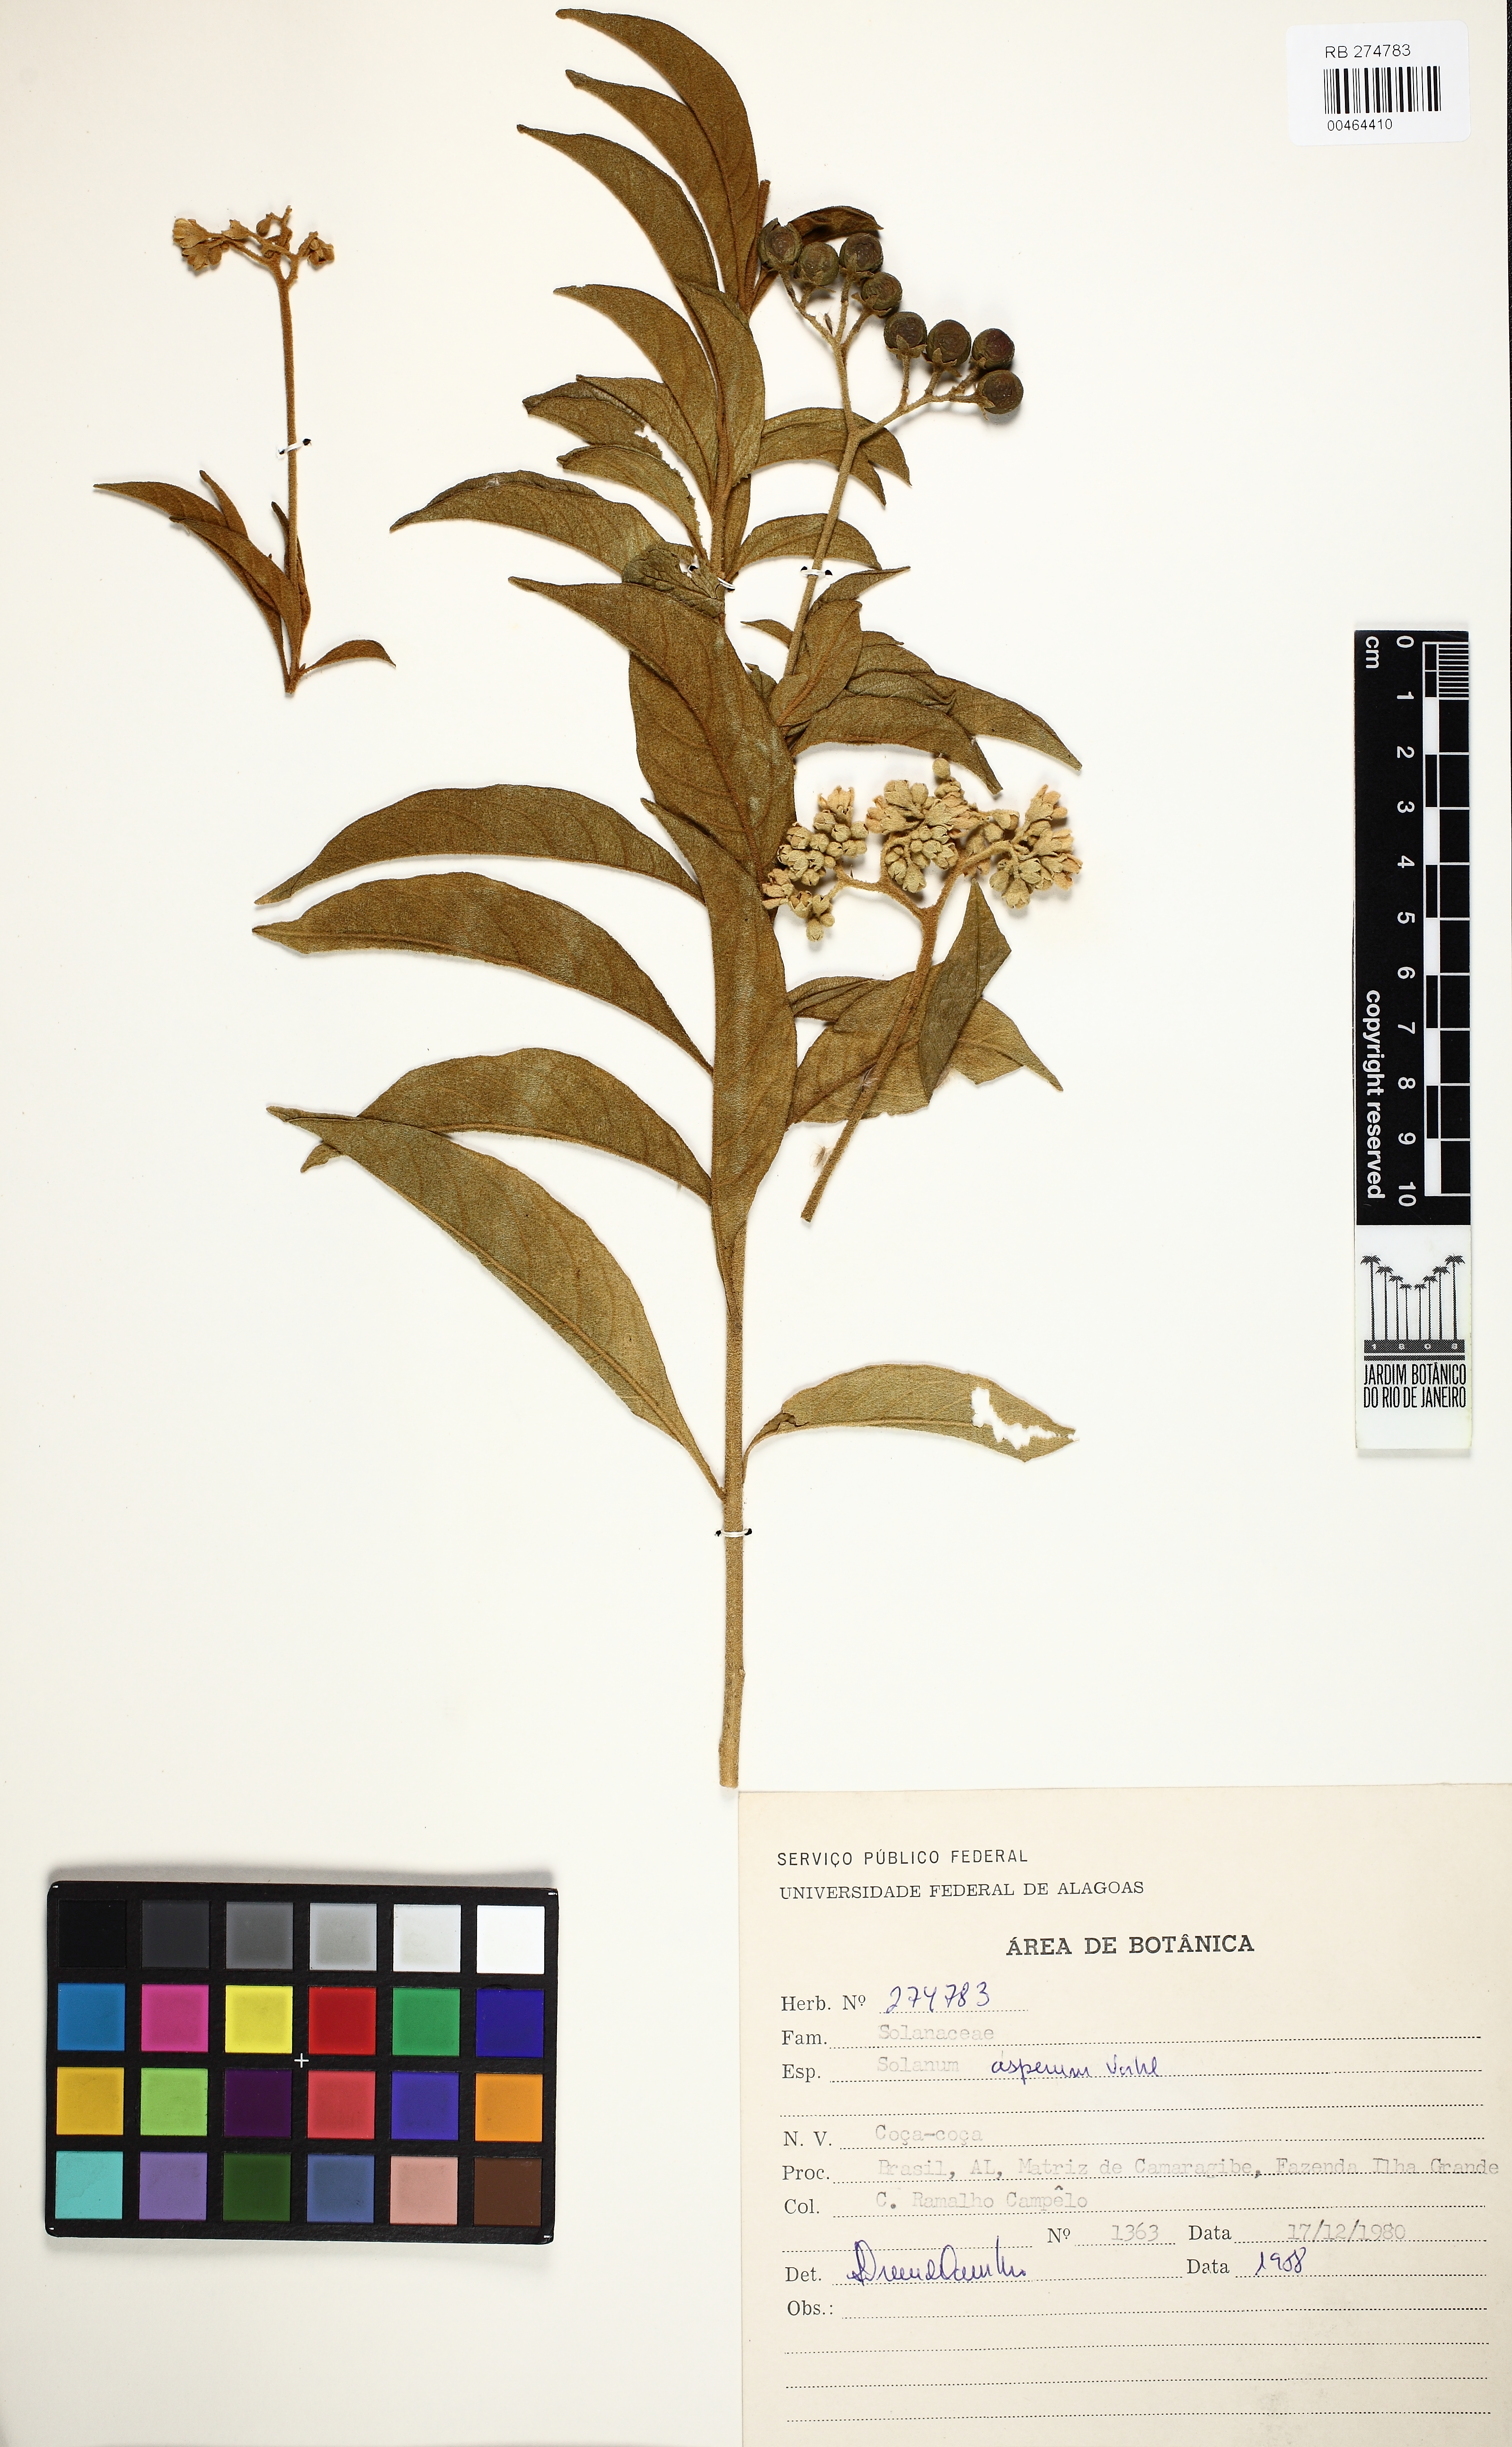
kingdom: Plantae
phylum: Tracheophyta
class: Magnoliopsida
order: Solanales
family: Solanaceae
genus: Solanum
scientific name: Solanum asperum
